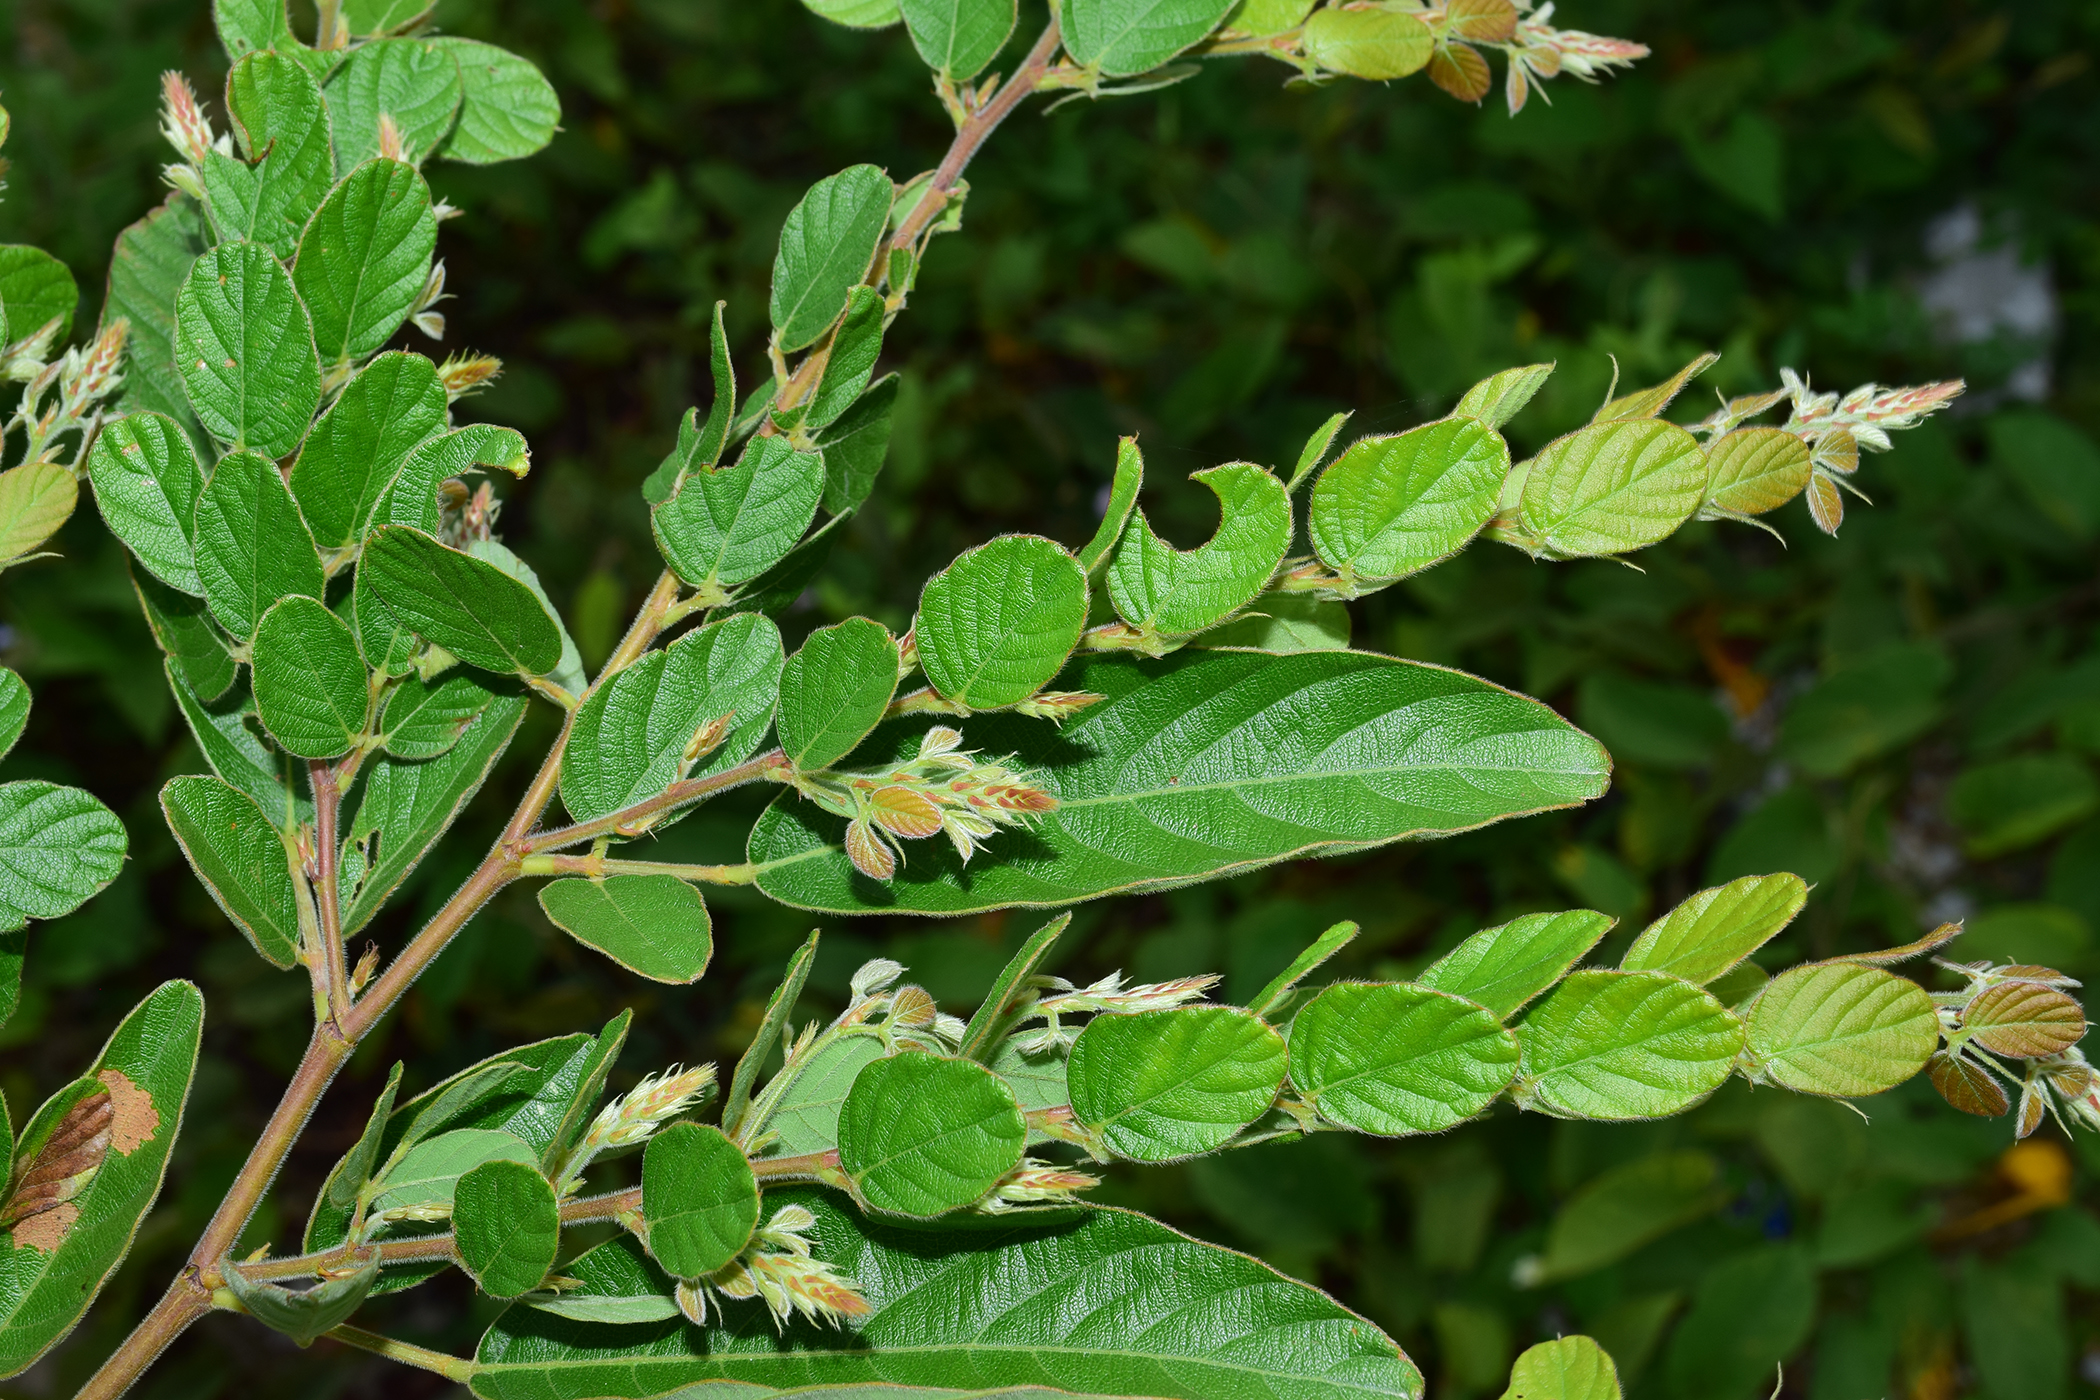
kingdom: Plantae
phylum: Tracheophyta
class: Magnoliopsida
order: Fabales
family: Fabaceae
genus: Phyllodium
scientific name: Phyllodium pulchellum
